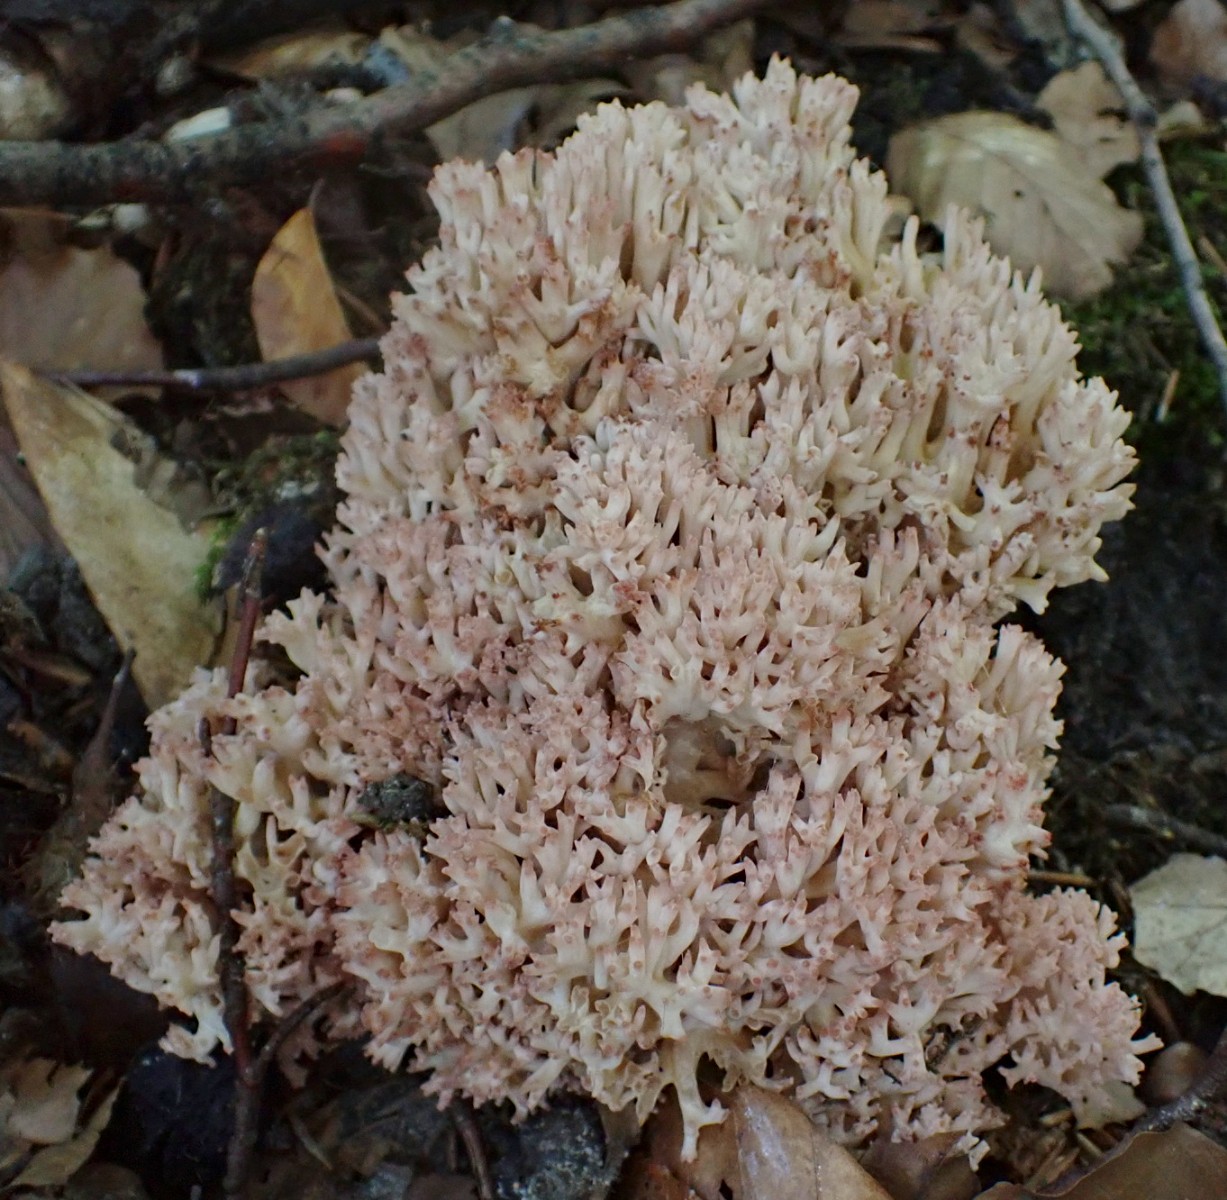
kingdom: Fungi
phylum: Basidiomycota
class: Agaricomycetes
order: Gomphales
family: Gomphaceae
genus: Ramaria
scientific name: Ramaria botrytis
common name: drue-koralsvamp
